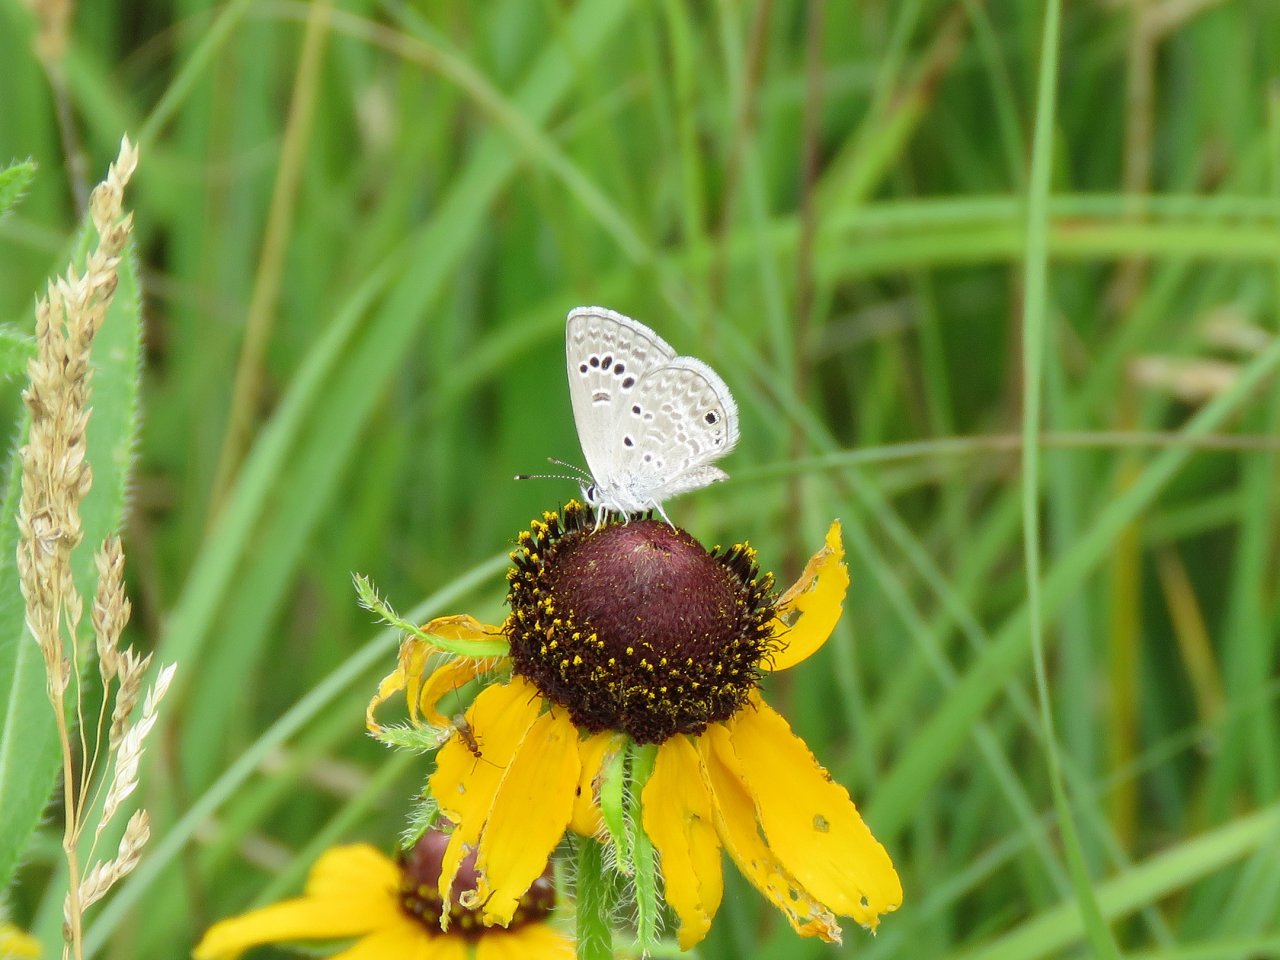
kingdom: Animalia
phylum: Arthropoda
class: Insecta
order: Lepidoptera
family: Lycaenidae
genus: Echinargus
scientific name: Echinargus isola
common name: Reakirt's Blue
